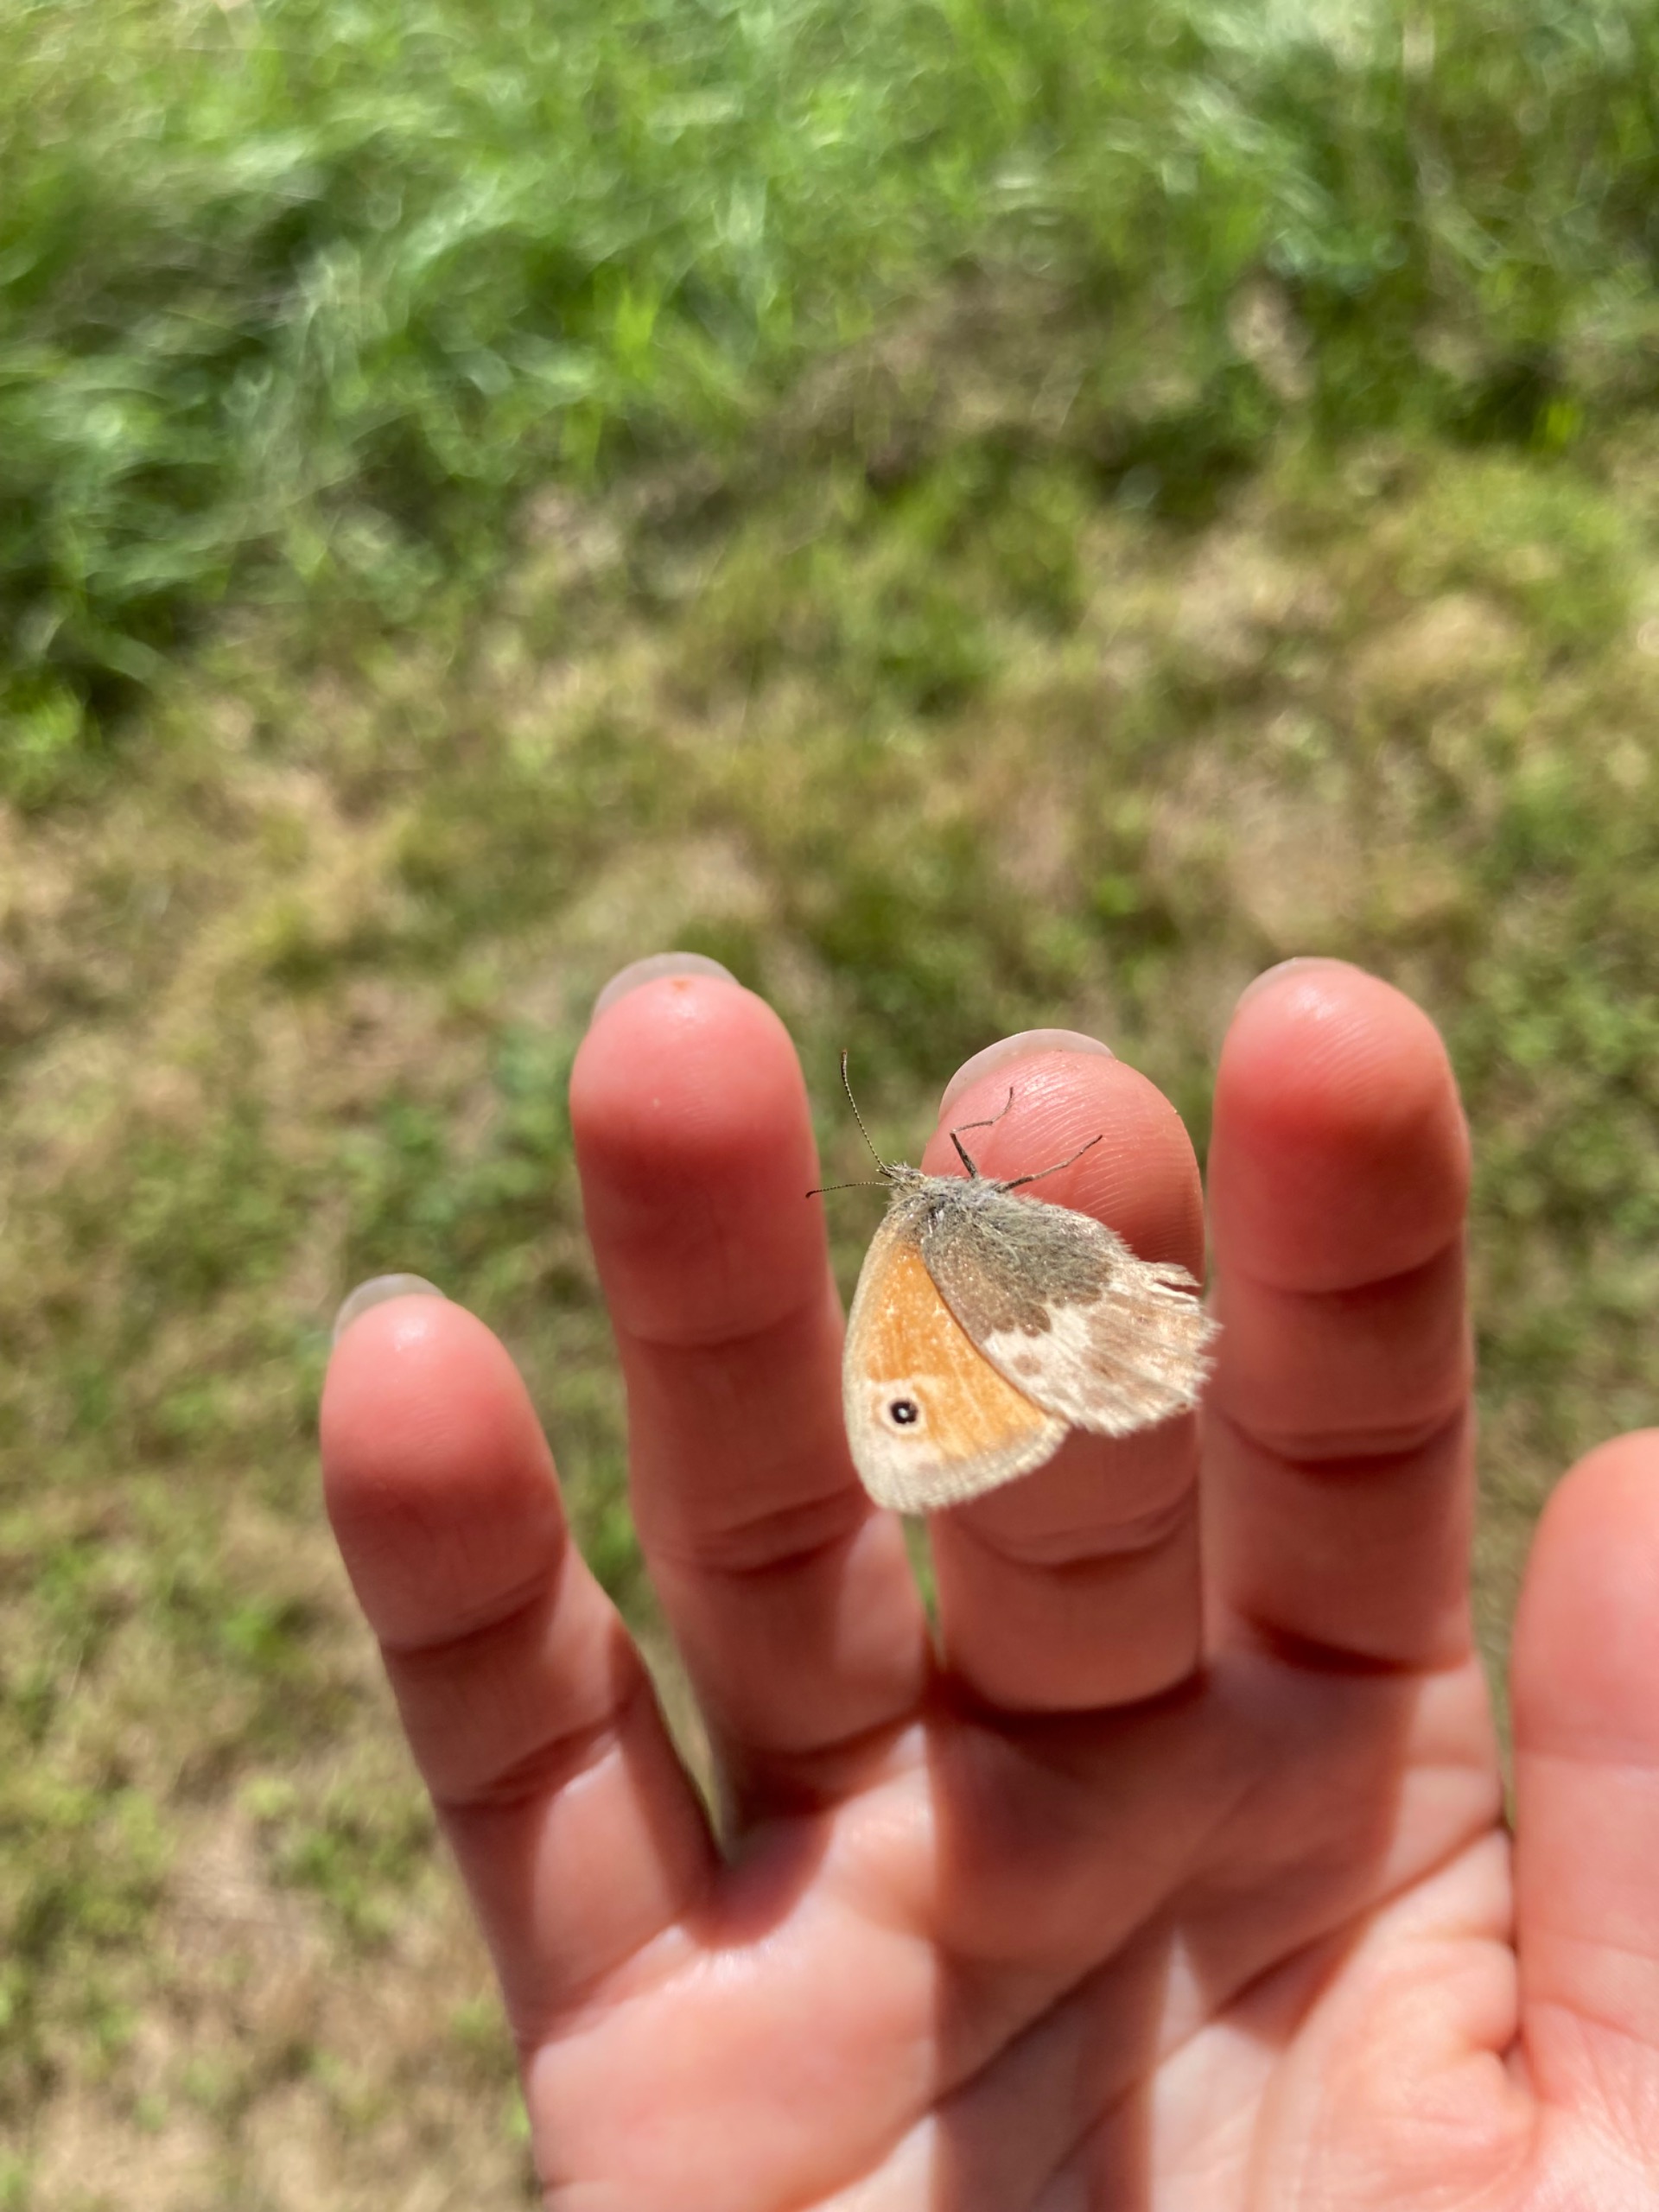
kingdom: Animalia
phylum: Arthropoda
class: Insecta
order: Lepidoptera
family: Nymphalidae
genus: Coenonympha
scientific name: Coenonympha pamphilus
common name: Okkergul randøje
